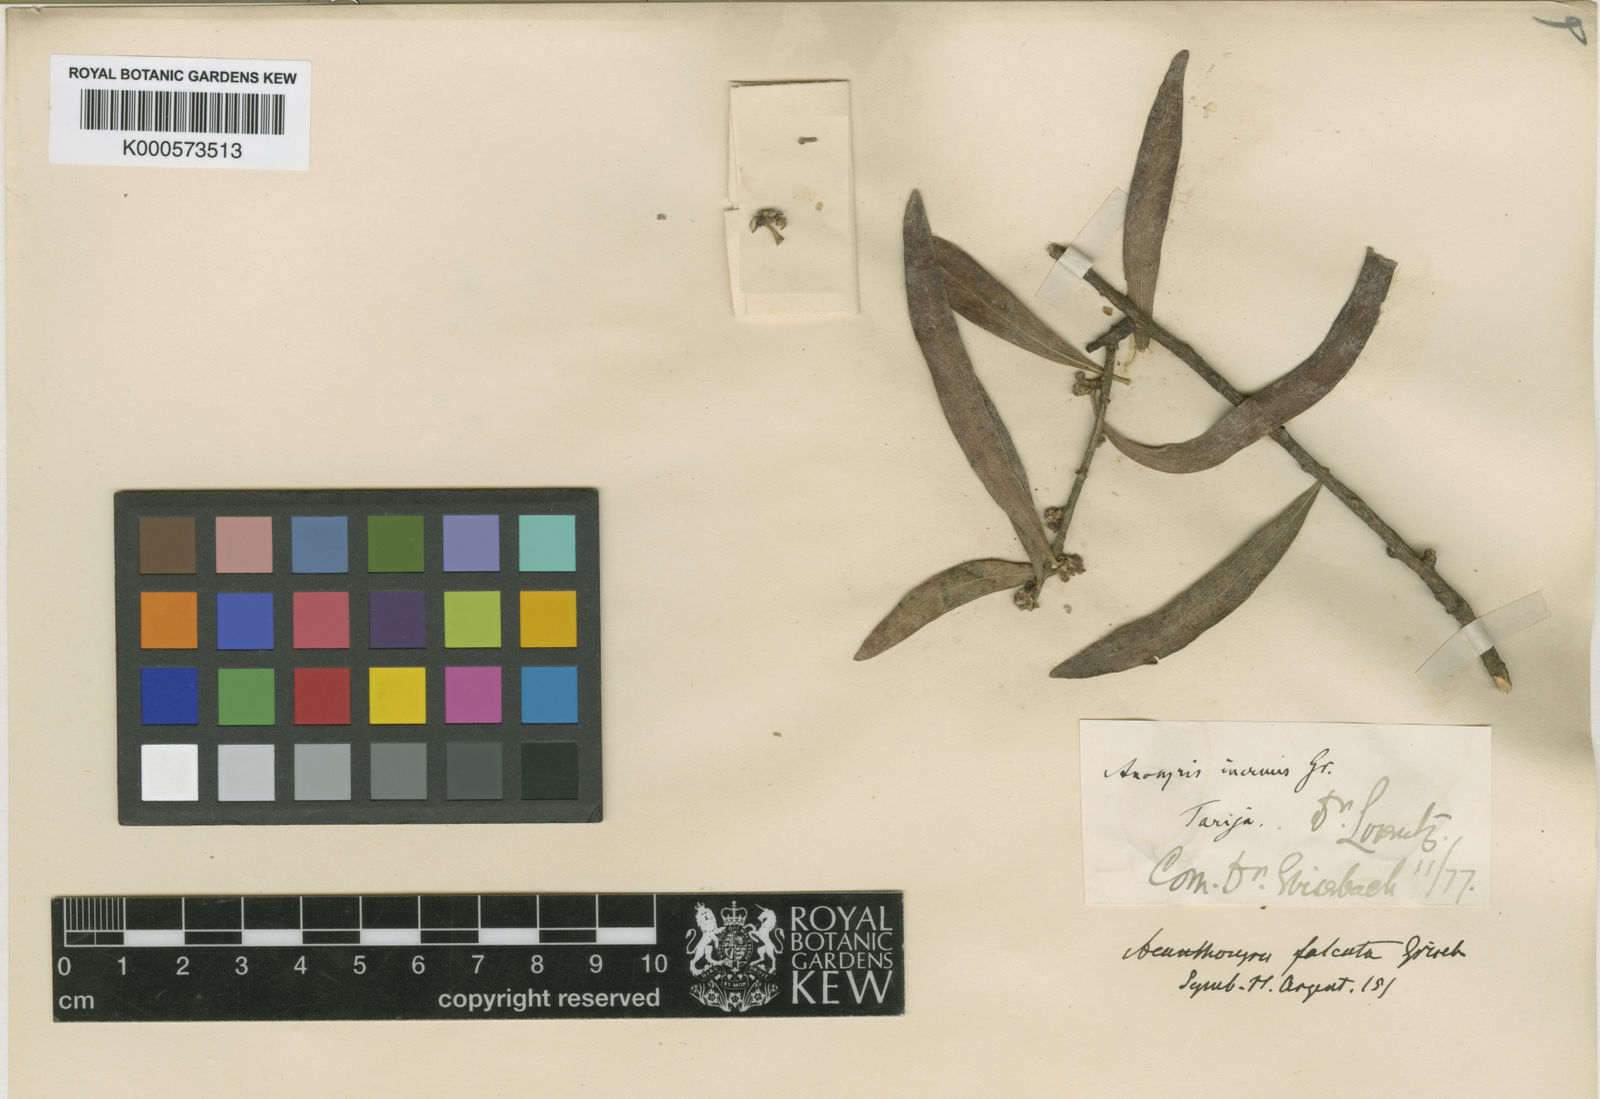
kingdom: Plantae
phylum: Tracheophyta
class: Magnoliopsida
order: Santalales
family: Cervantesiaceae
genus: Acanthosyris
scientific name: Acanthosyris falcata
